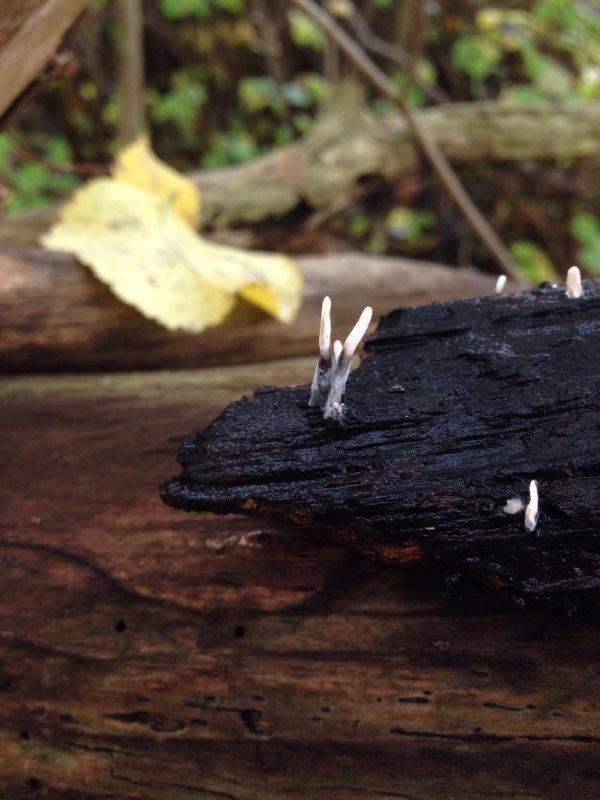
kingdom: Fungi
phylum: Ascomycota
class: Sordariomycetes
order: Xylariales
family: Xylariaceae
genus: Xylaria
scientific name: Xylaria hypoxylon
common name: grenet stødsvamp
